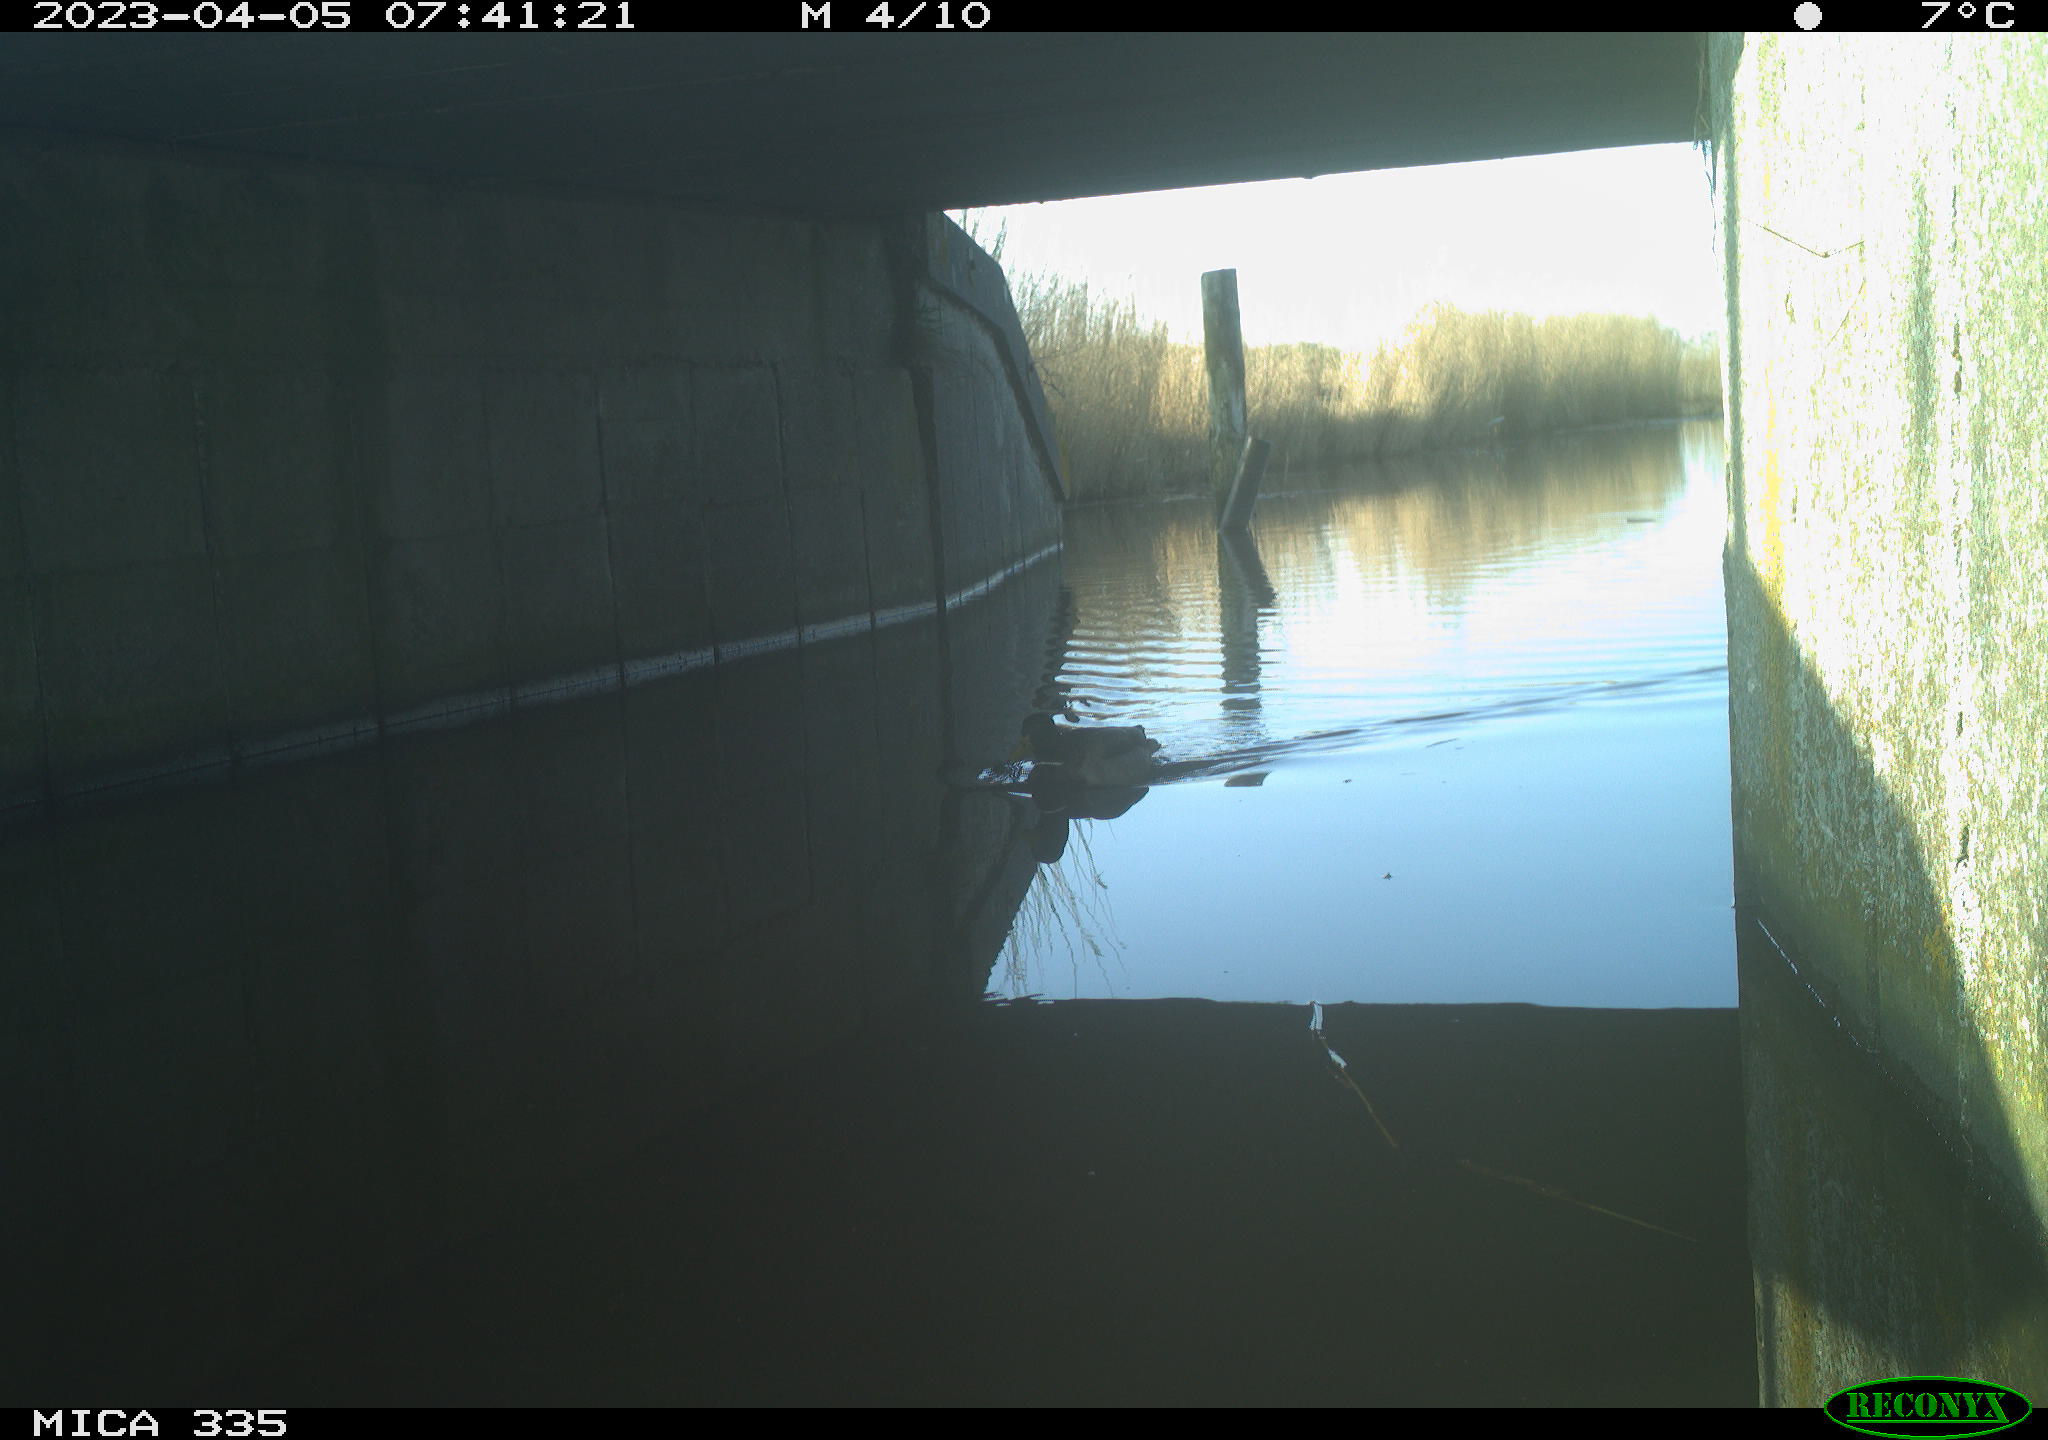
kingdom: Animalia
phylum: Chordata
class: Aves
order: Anseriformes
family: Anatidae
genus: Anas
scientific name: Anas
